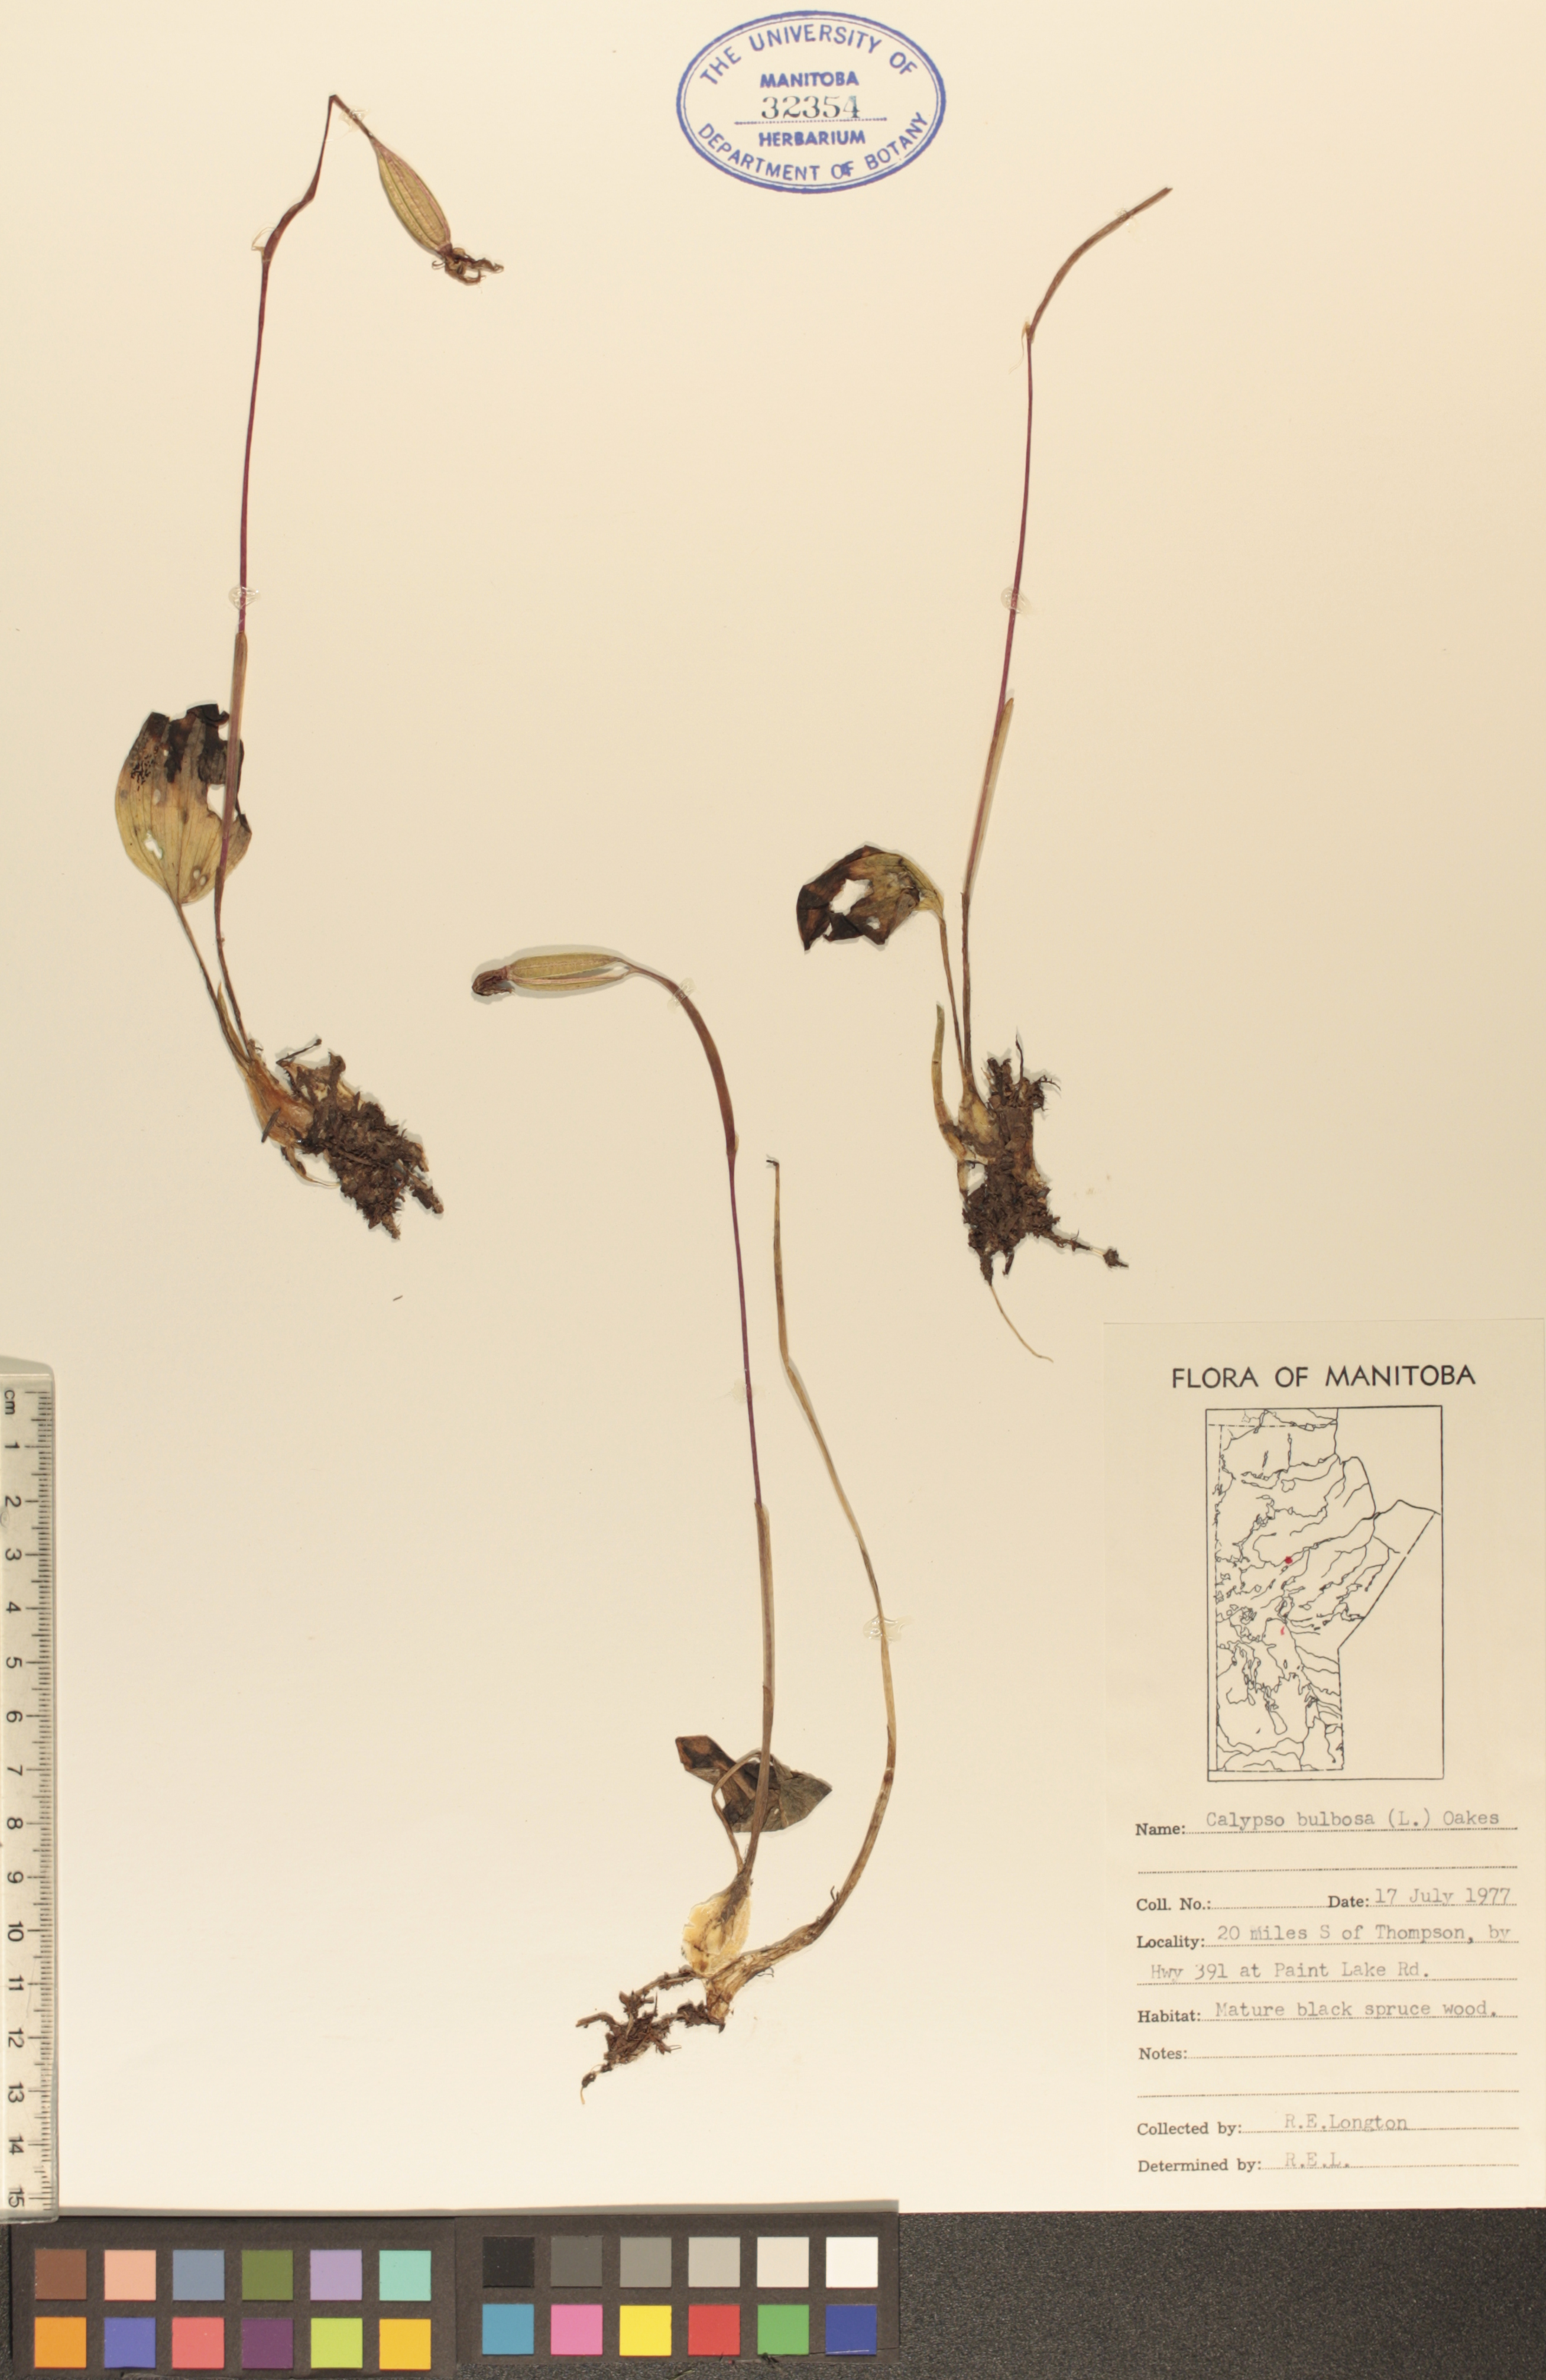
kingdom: Plantae
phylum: Tracheophyta
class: Liliopsida
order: Asparagales
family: Orchidaceae
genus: Calypso
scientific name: Calypso bulbosa
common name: Calypso
